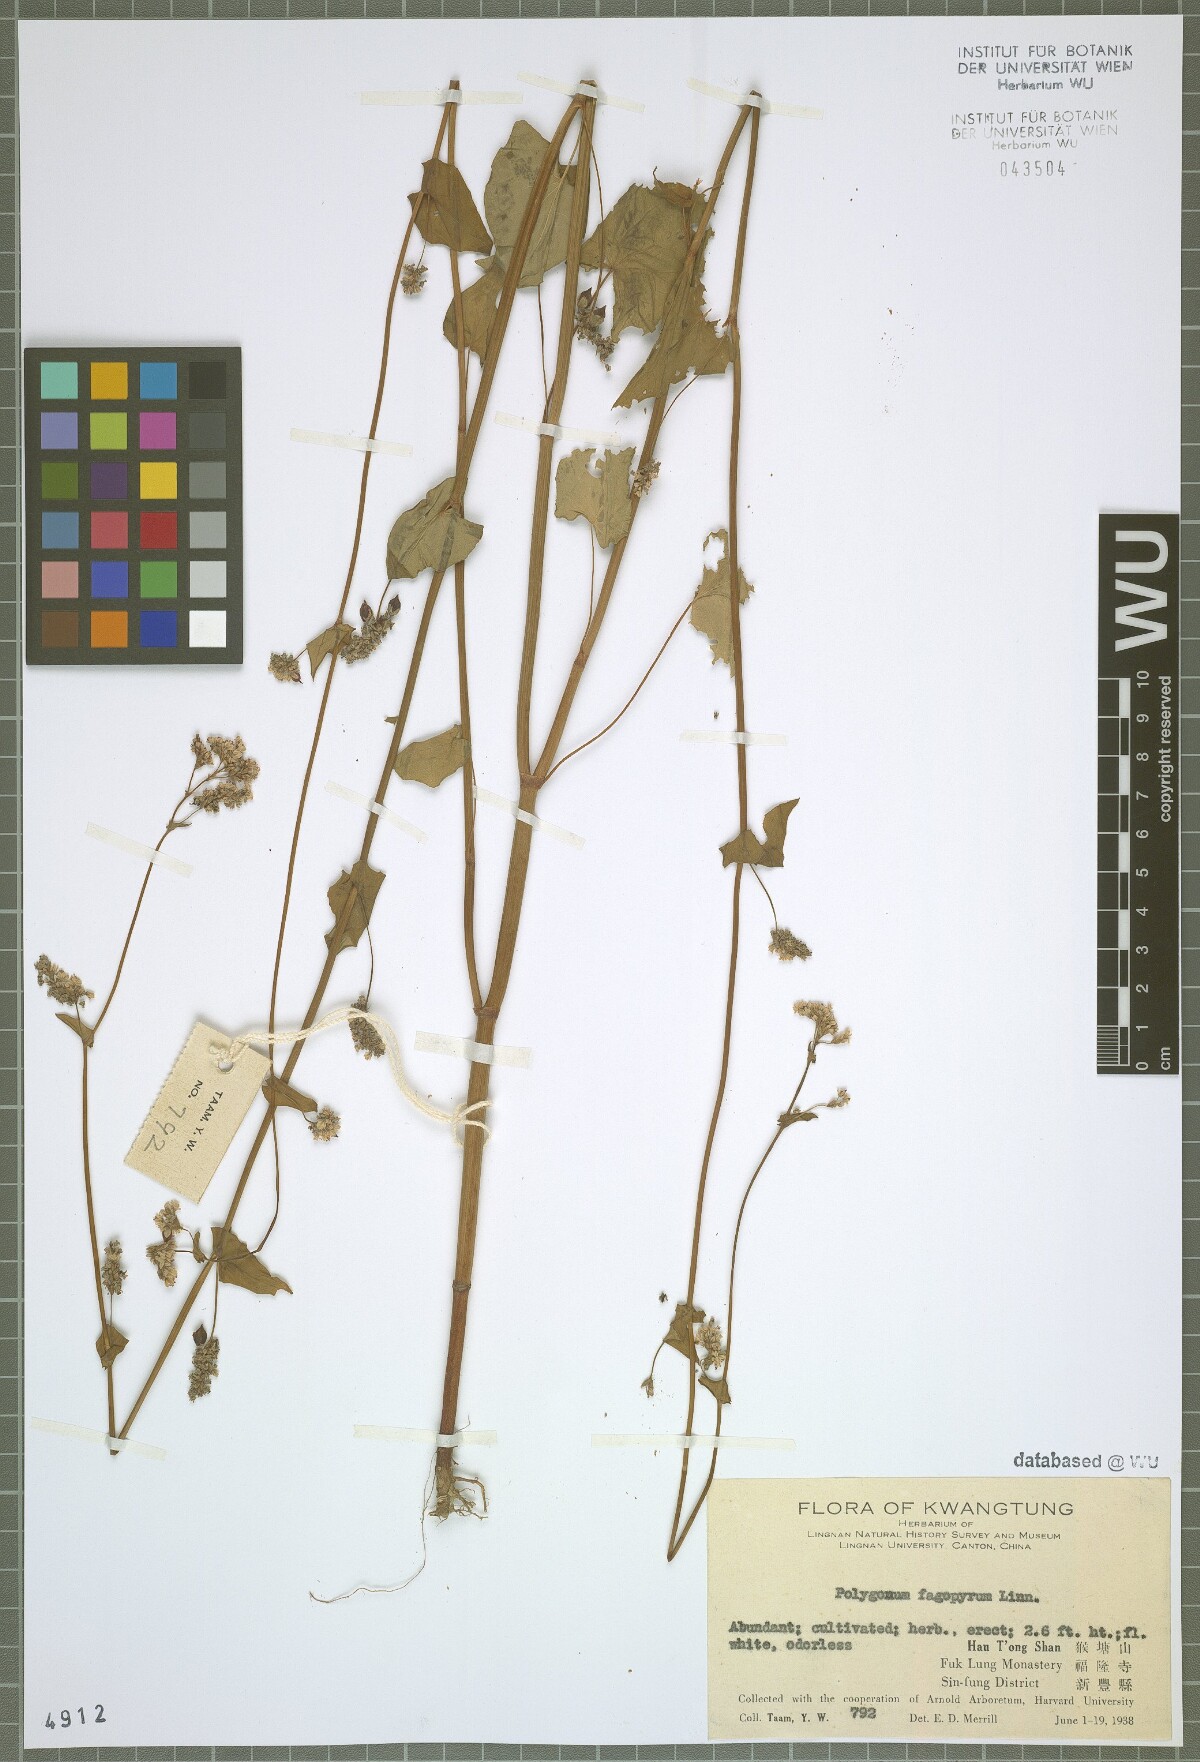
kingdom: Plantae
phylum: Tracheophyta
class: Magnoliopsida
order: Caryophyllales
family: Polygonaceae
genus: Fagopyrum
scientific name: Fagopyrum esculentum
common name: Buckwheat
